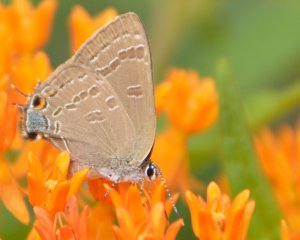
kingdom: Animalia
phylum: Arthropoda
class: Insecta
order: Lepidoptera
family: Lycaenidae
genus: Strymon
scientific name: Strymon caryaevorus
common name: Hickory Hairstreak
